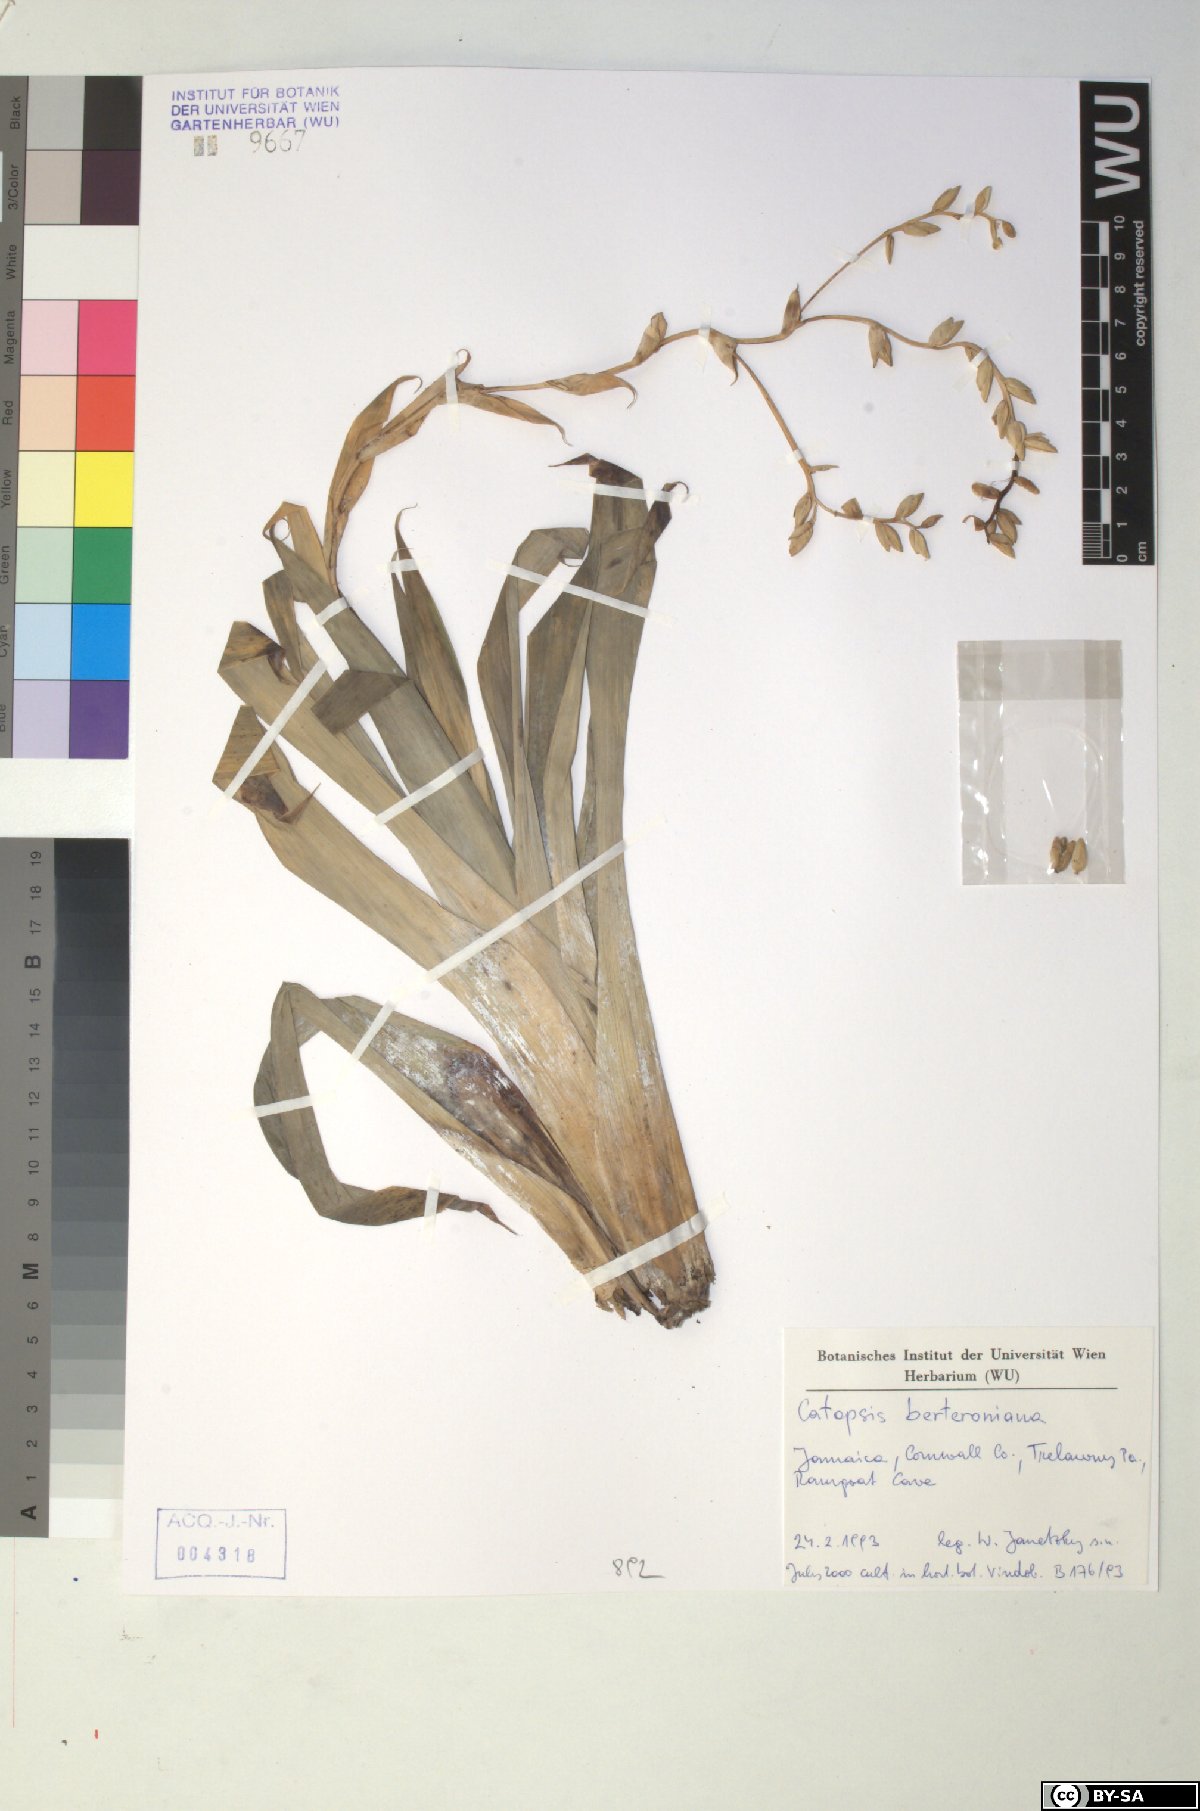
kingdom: Plantae
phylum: Tracheophyta
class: Liliopsida
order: Poales
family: Bromeliaceae
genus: Catopsis
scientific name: Catopsis berteroniana
